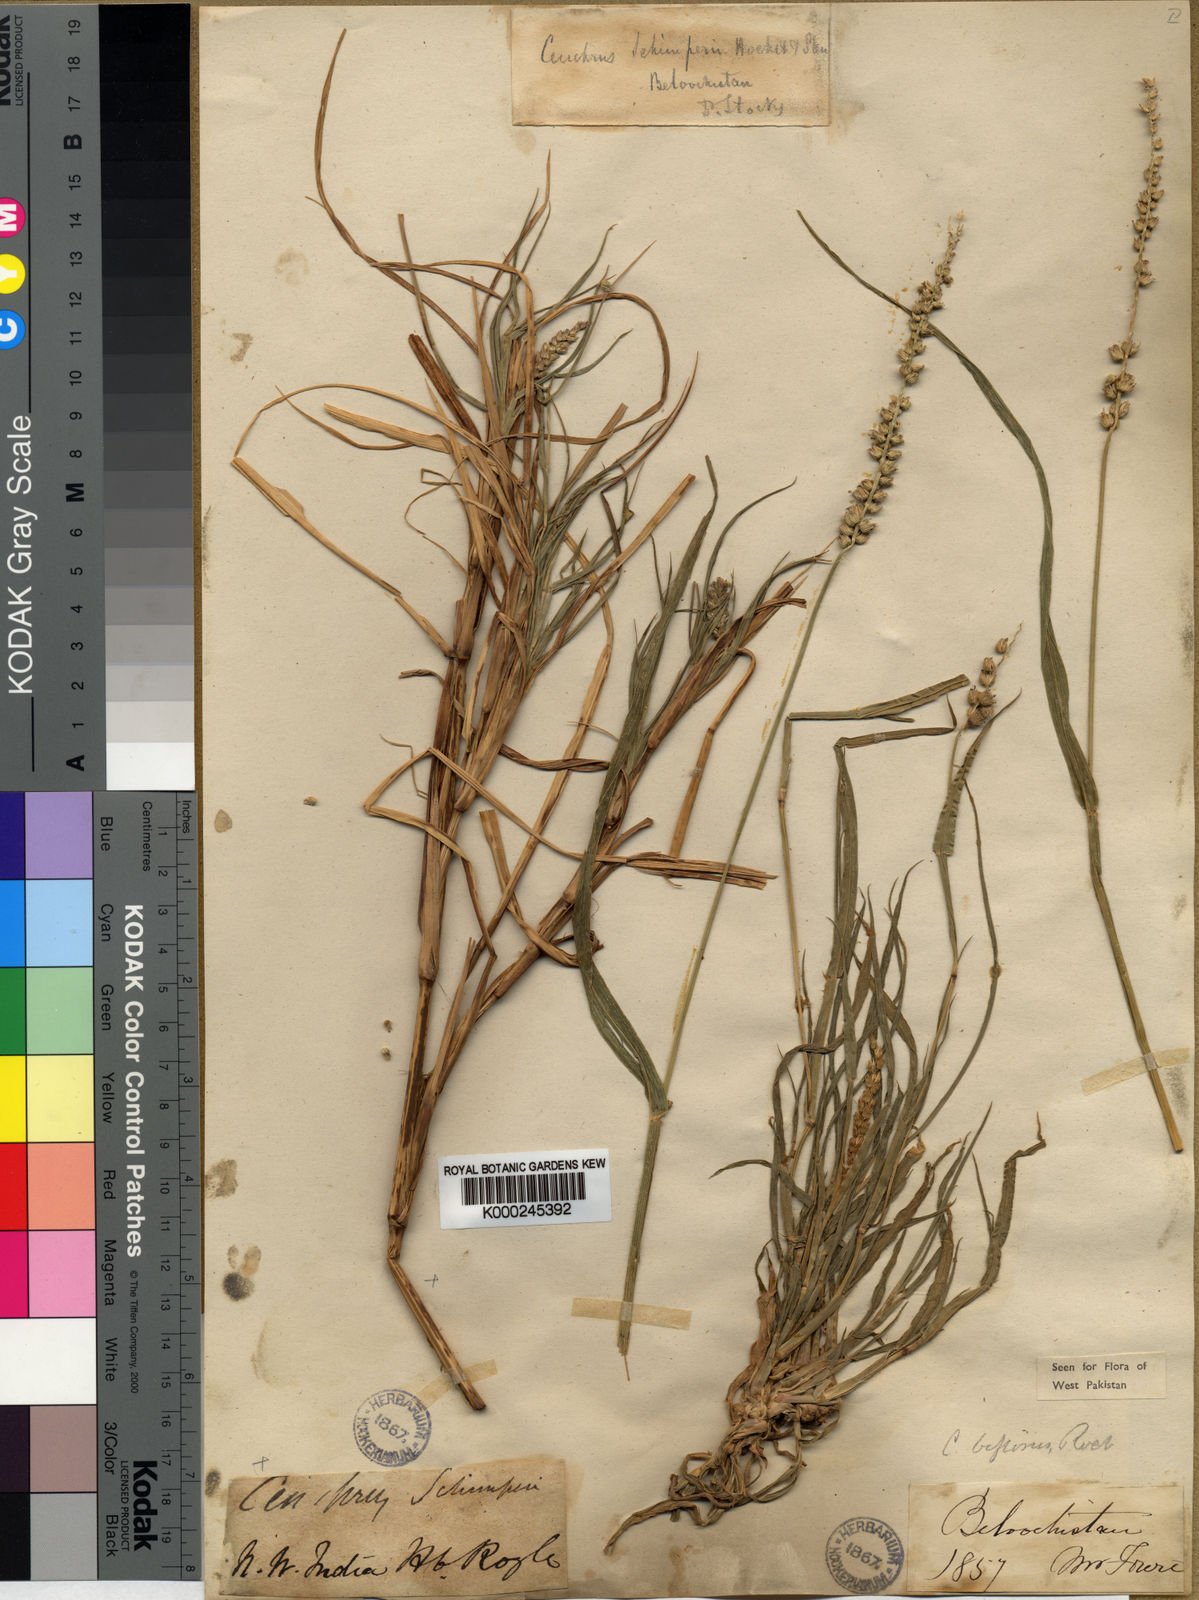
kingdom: Plantae
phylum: Tracheophyta
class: Liliopsida
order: Poales
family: Poaceae
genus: Cenchrus
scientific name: Cenchrus
